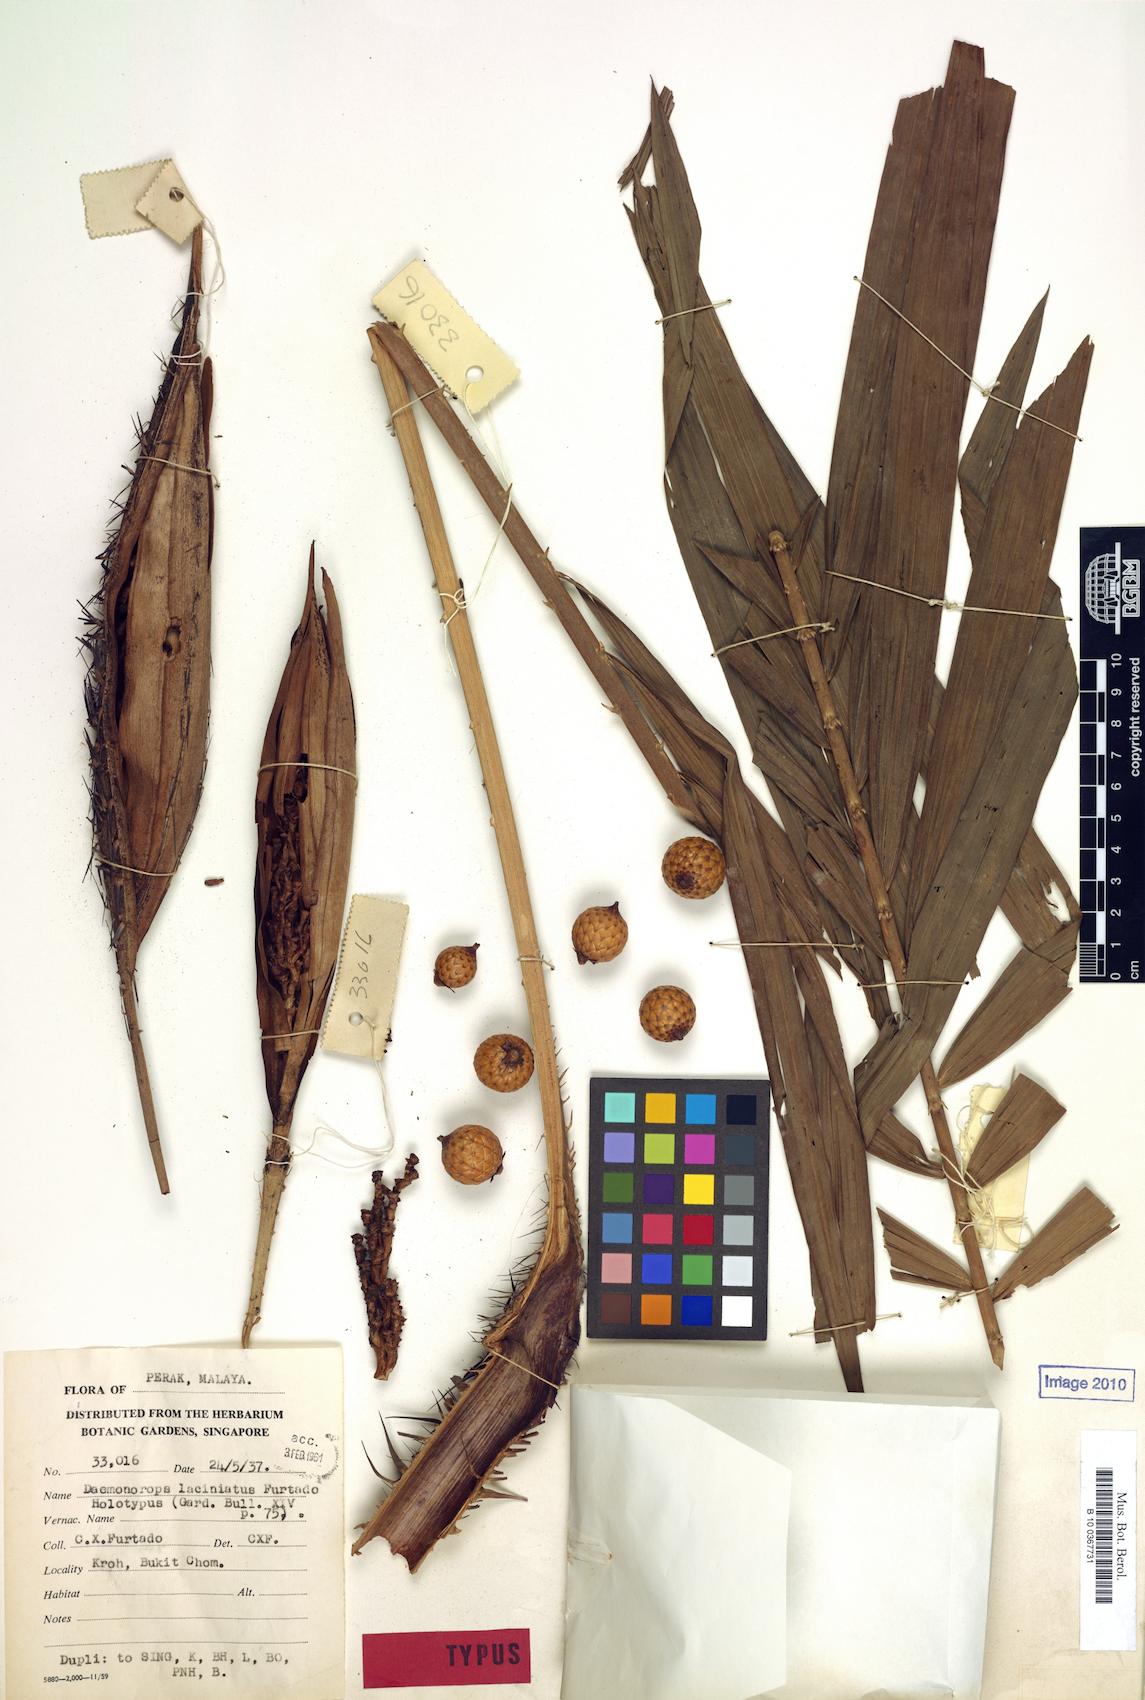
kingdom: Plantae
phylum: Tracheophyta
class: Liliopsida
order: Arecales
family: Arecaceae
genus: Calamus
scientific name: Calamus melanochaetes
